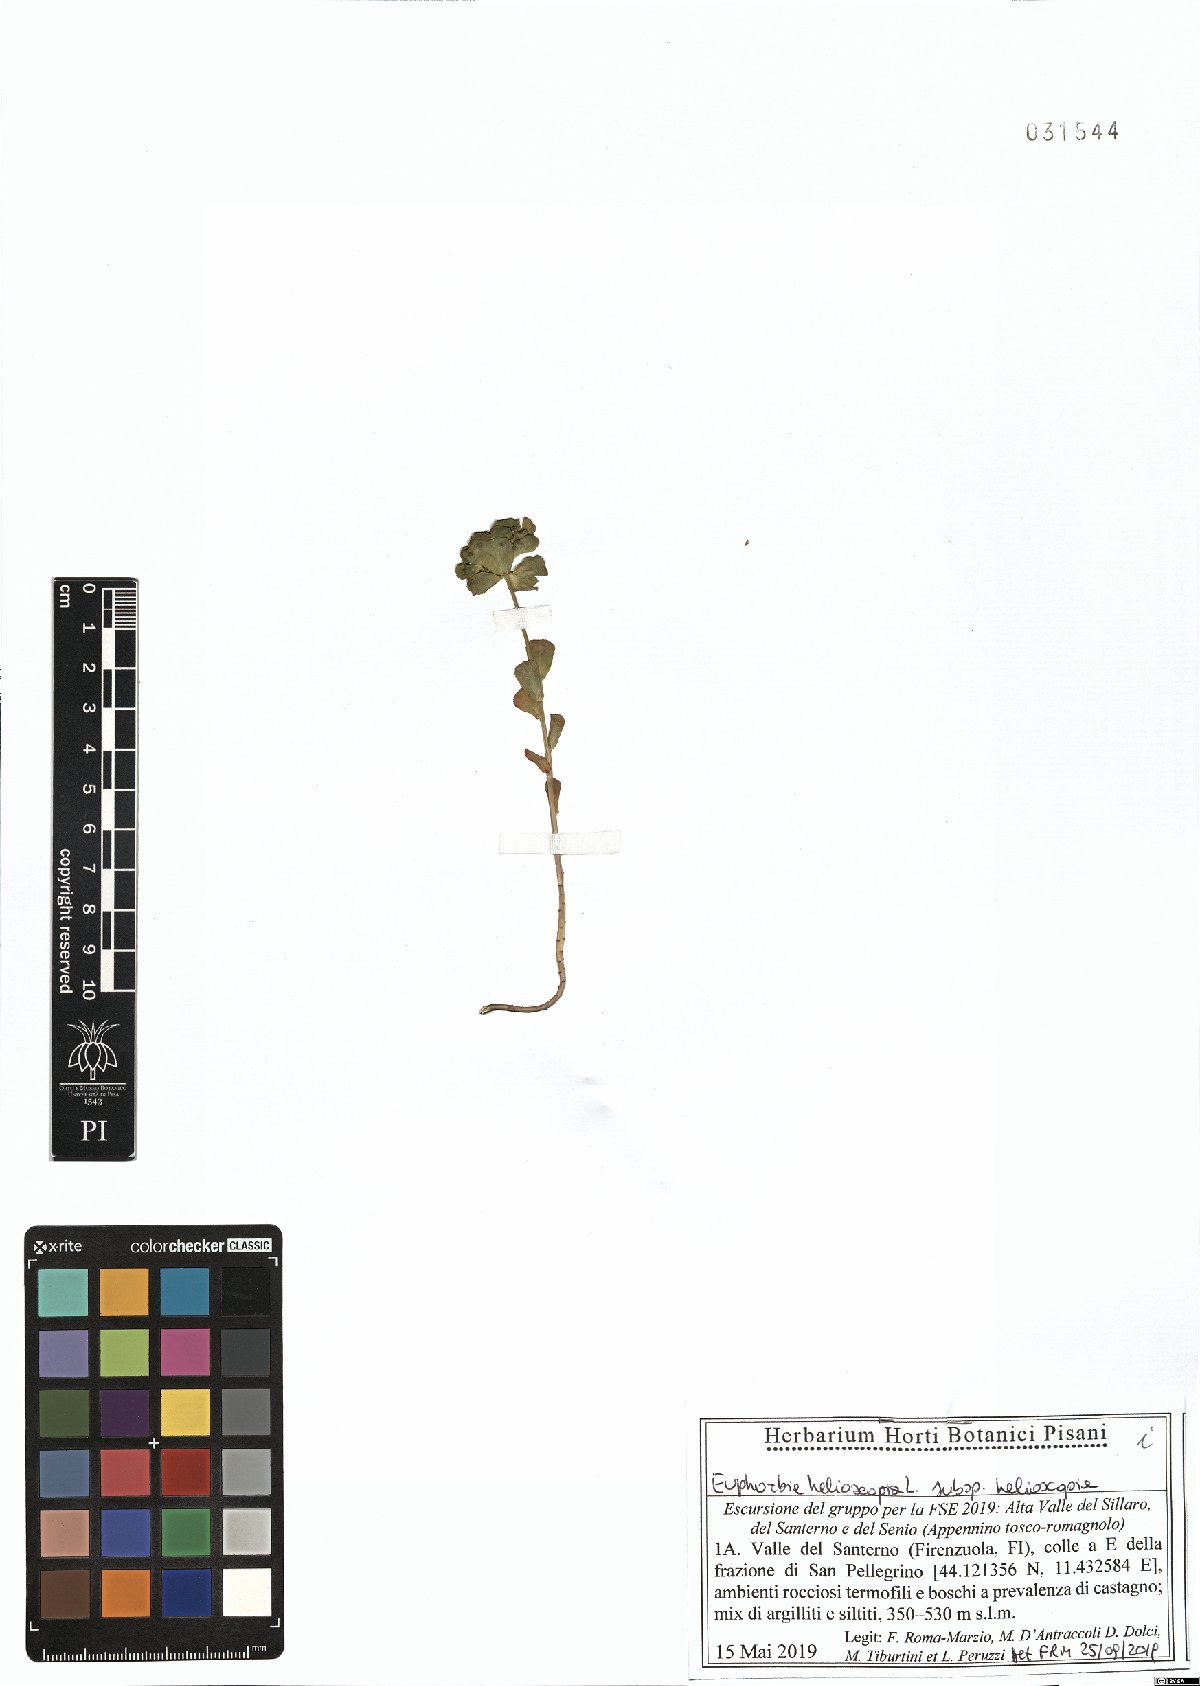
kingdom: Plantae
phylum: Tracheophyta
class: Magnoliopsida
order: Malpighiales
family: Euphorbiaceae
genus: Euphorbia
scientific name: Euphorbia helioscopia
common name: Sun spurge
